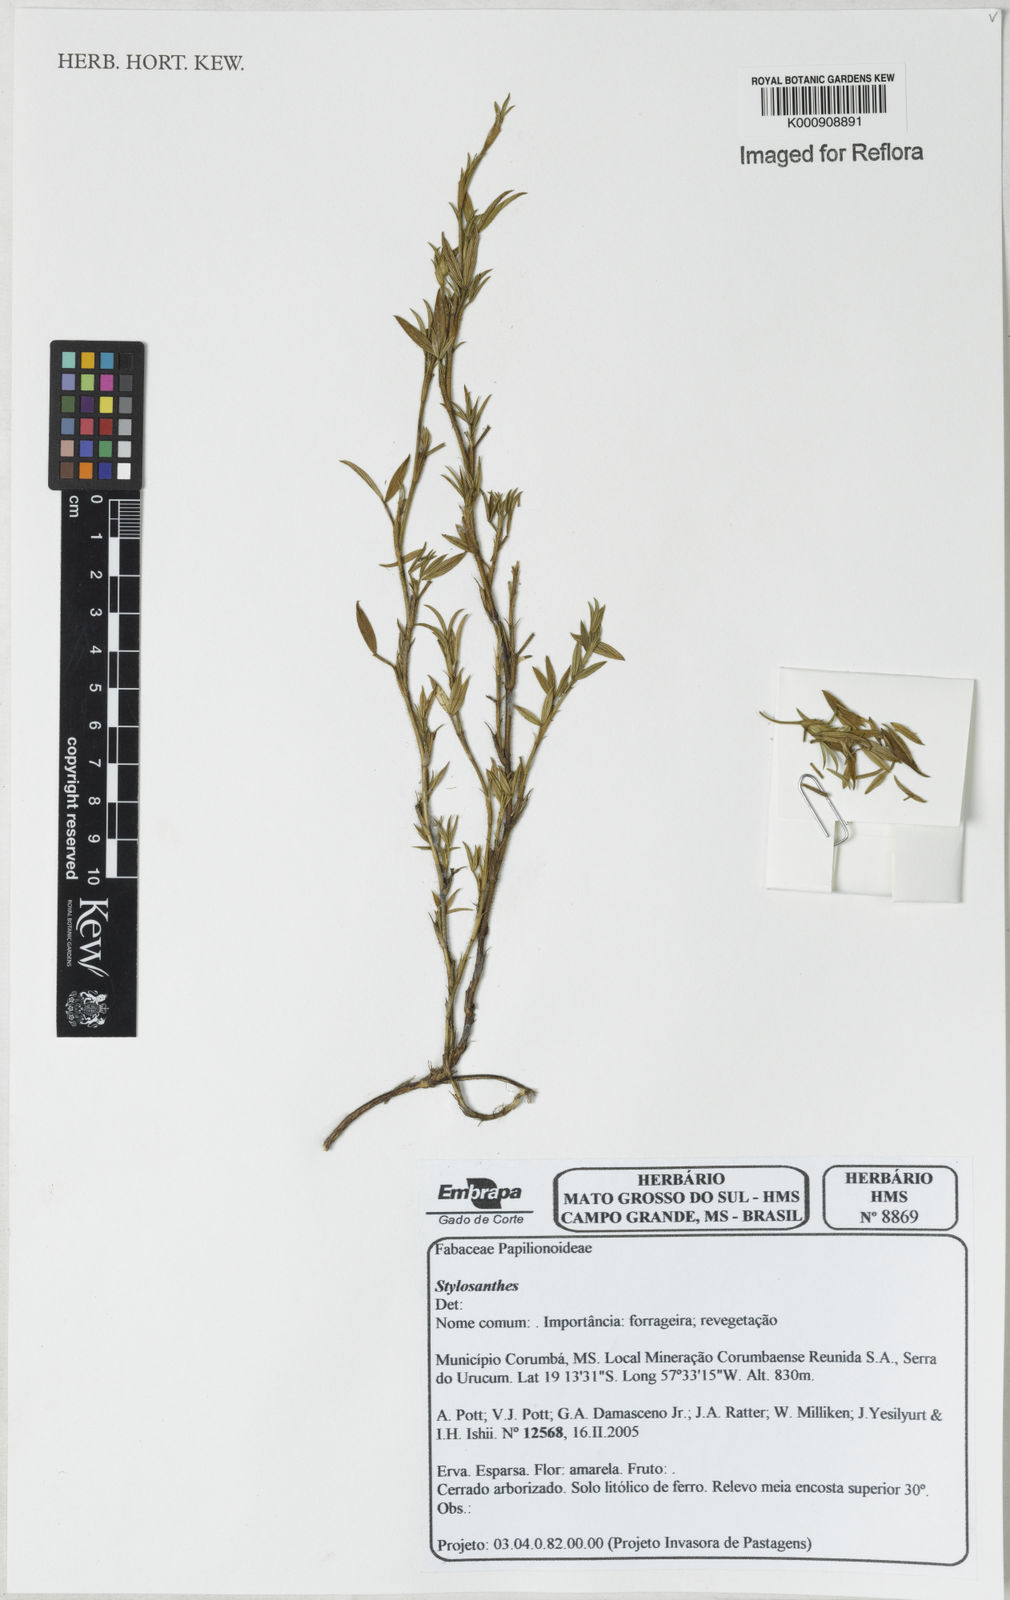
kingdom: Plantae
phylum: Tracheophyta
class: Magnoliopsida
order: Fabales
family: Fabaceae
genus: Stylosanthes
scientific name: Stylosanthes
